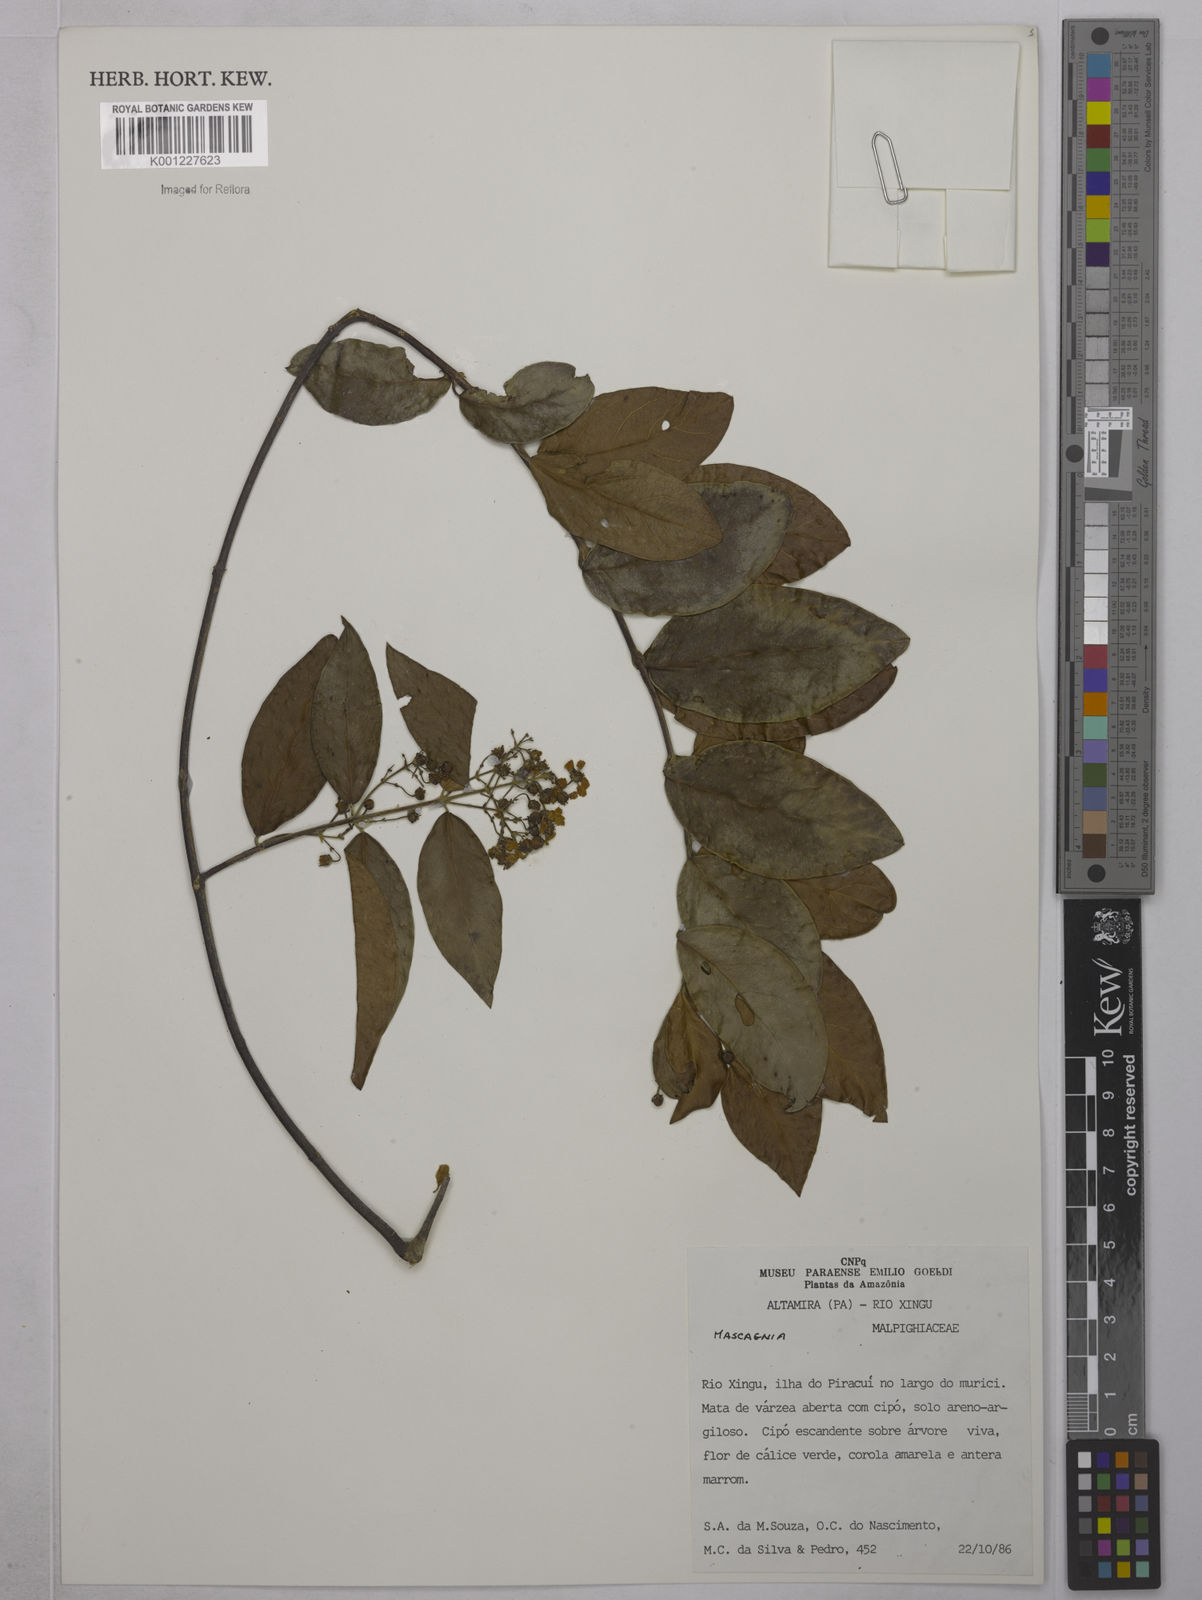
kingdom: Plantae
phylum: Tracheophyta
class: Magnoliopsida
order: Malpighiales
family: Malpighiaceae
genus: Mascagnia
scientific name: Mascagnia
